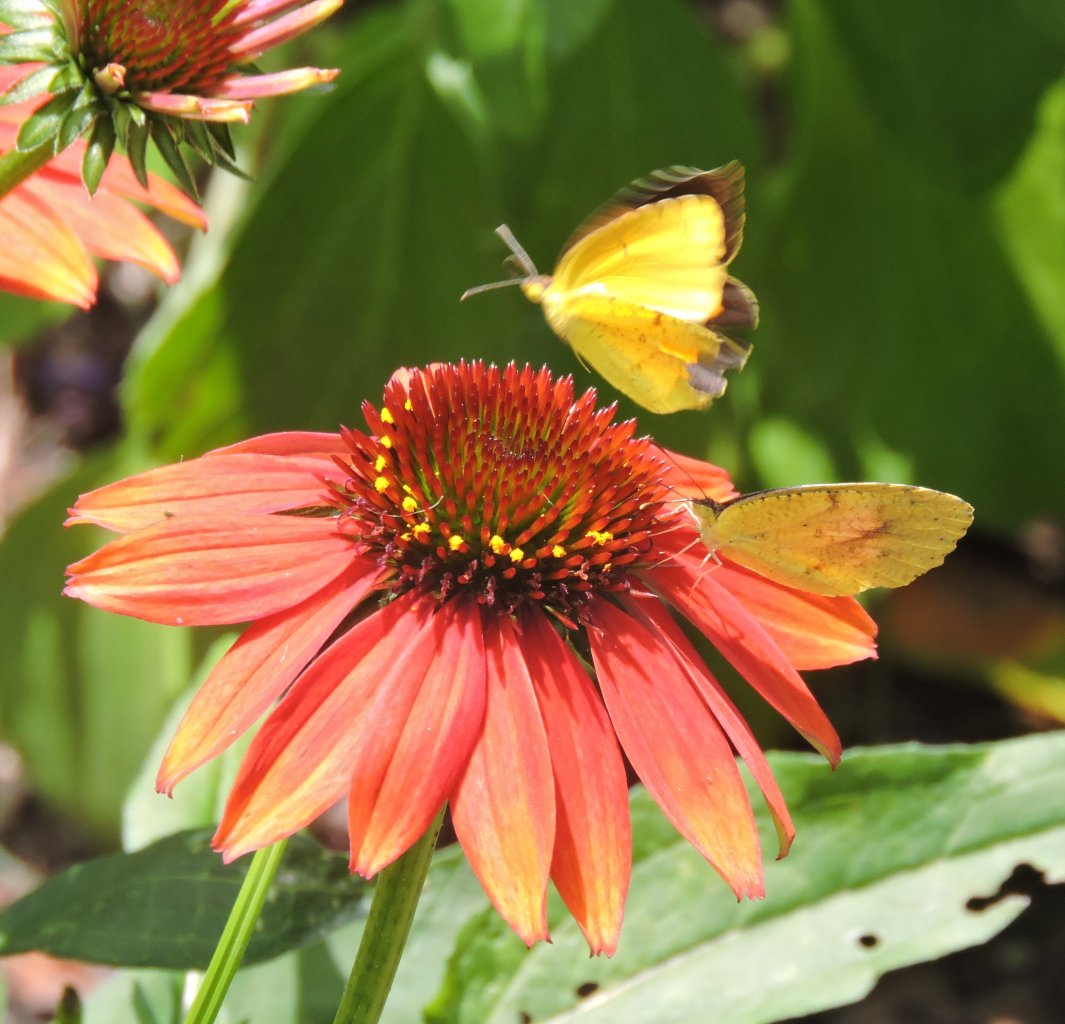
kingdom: Animalia
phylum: Arthropoda
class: Insecta
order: Lepidoptera
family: Pieridae
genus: Abaeis
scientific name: Abaeis nicippe
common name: Sleepy Orange
